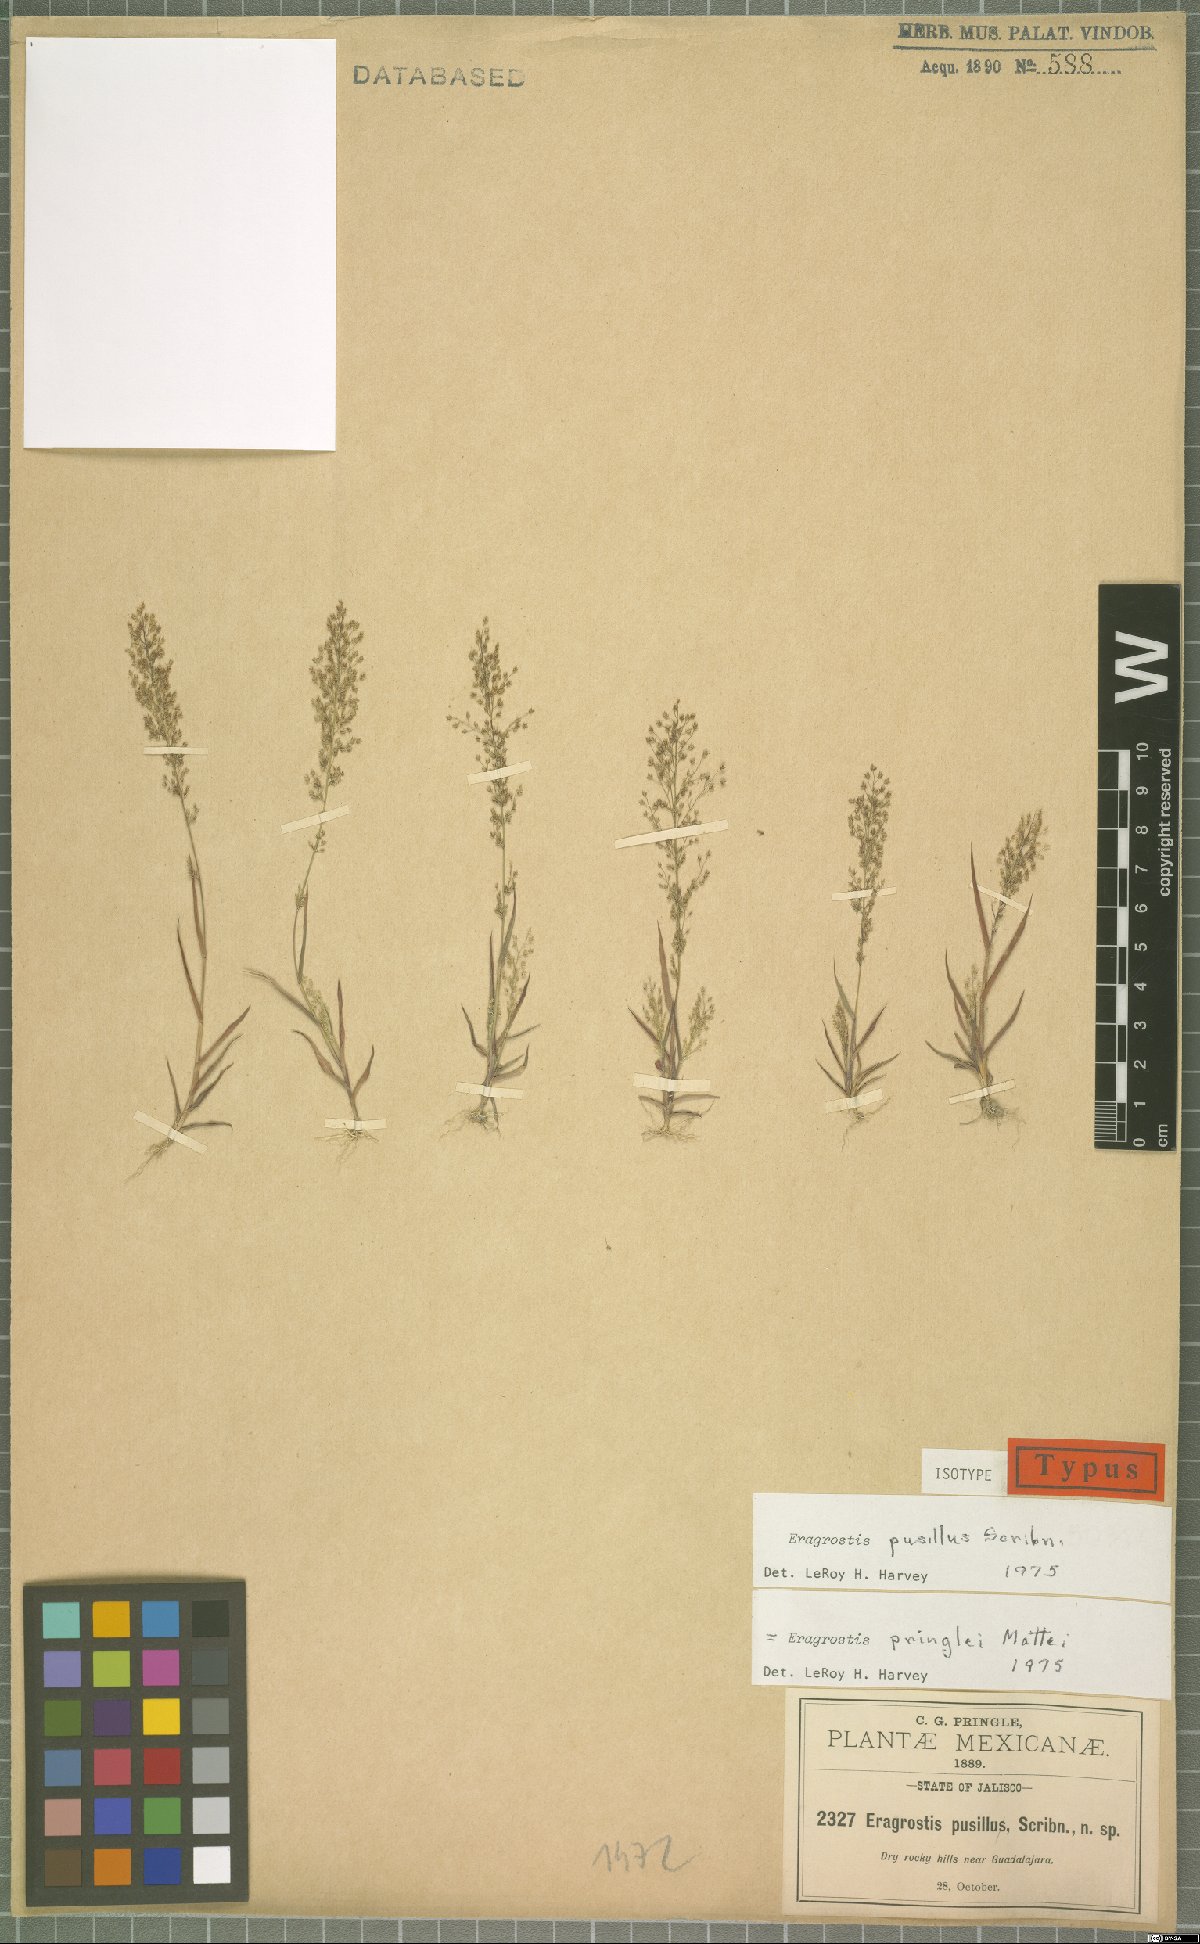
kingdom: Plantae
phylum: Tracheophyta
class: Liliopsida
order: Poales
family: Poaceae
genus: Eragrostis
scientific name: Eragrostis pringlei
